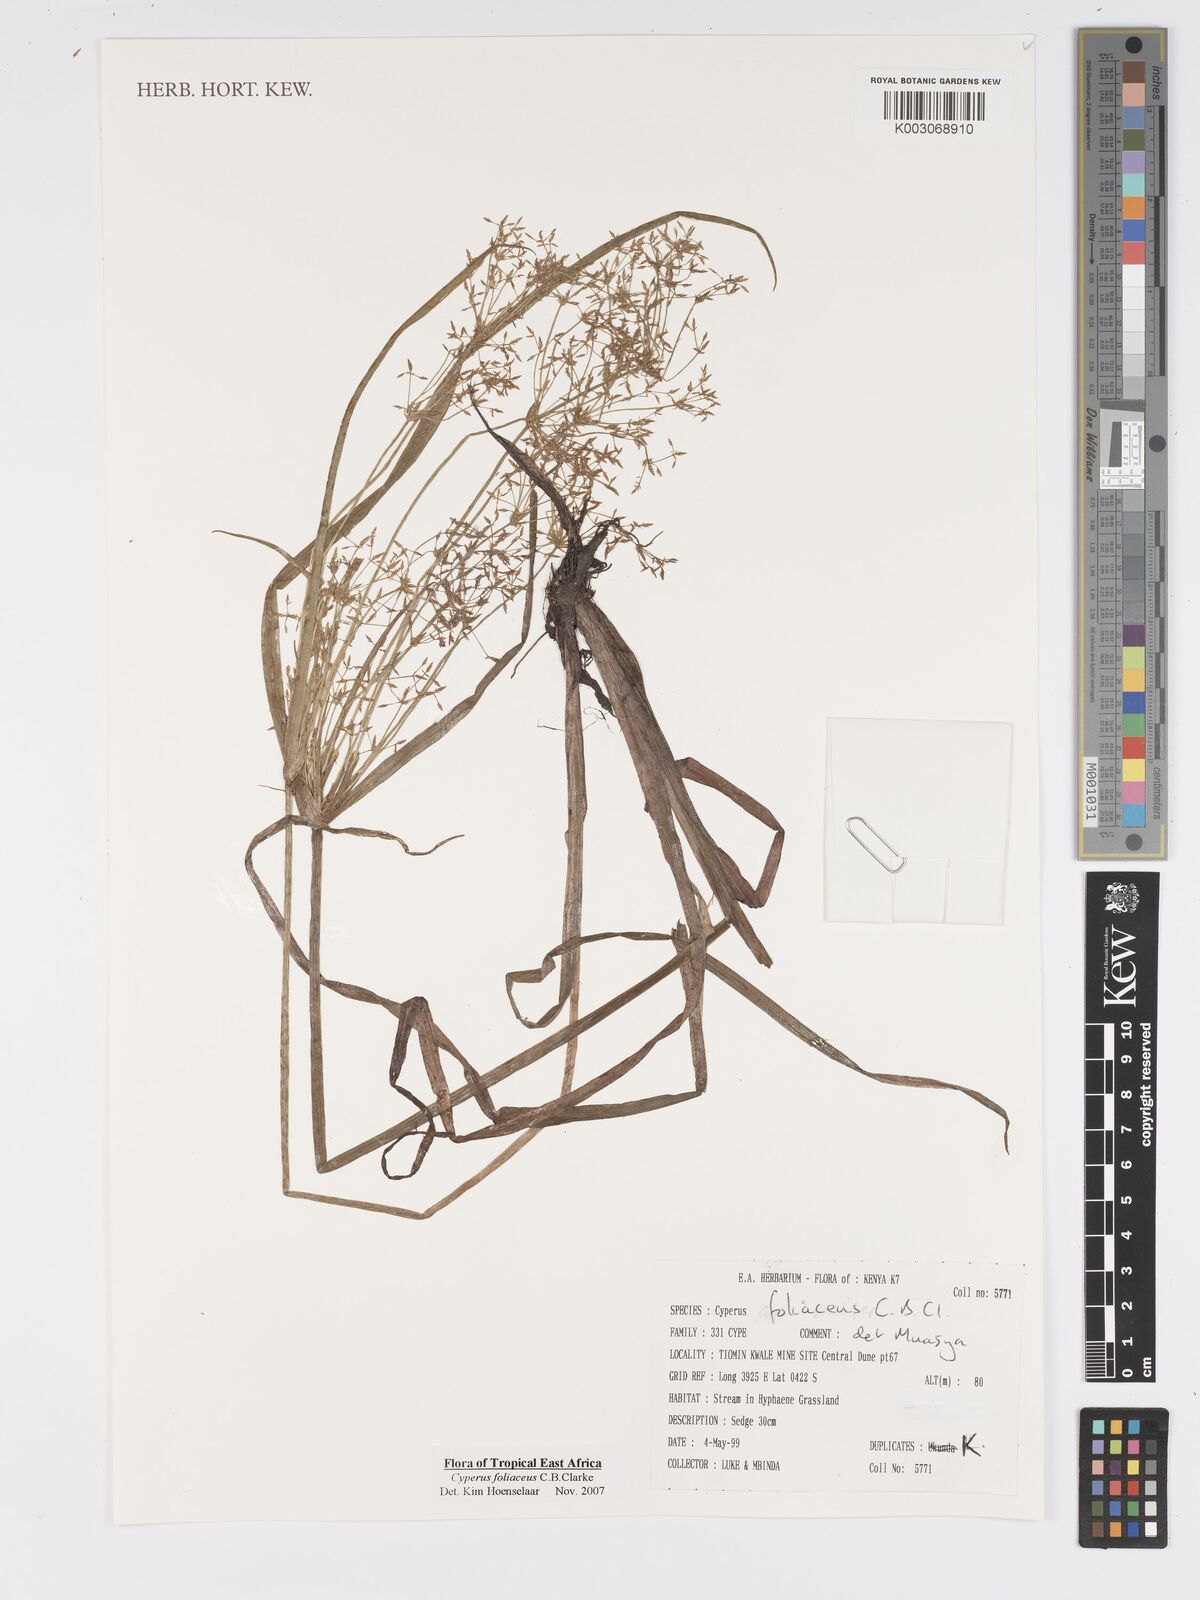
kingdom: Plantae
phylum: Tracheophyta
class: Liliopsida
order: Poales
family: Cyperaceae
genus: Cyperus
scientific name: Cyperus foliaceus
